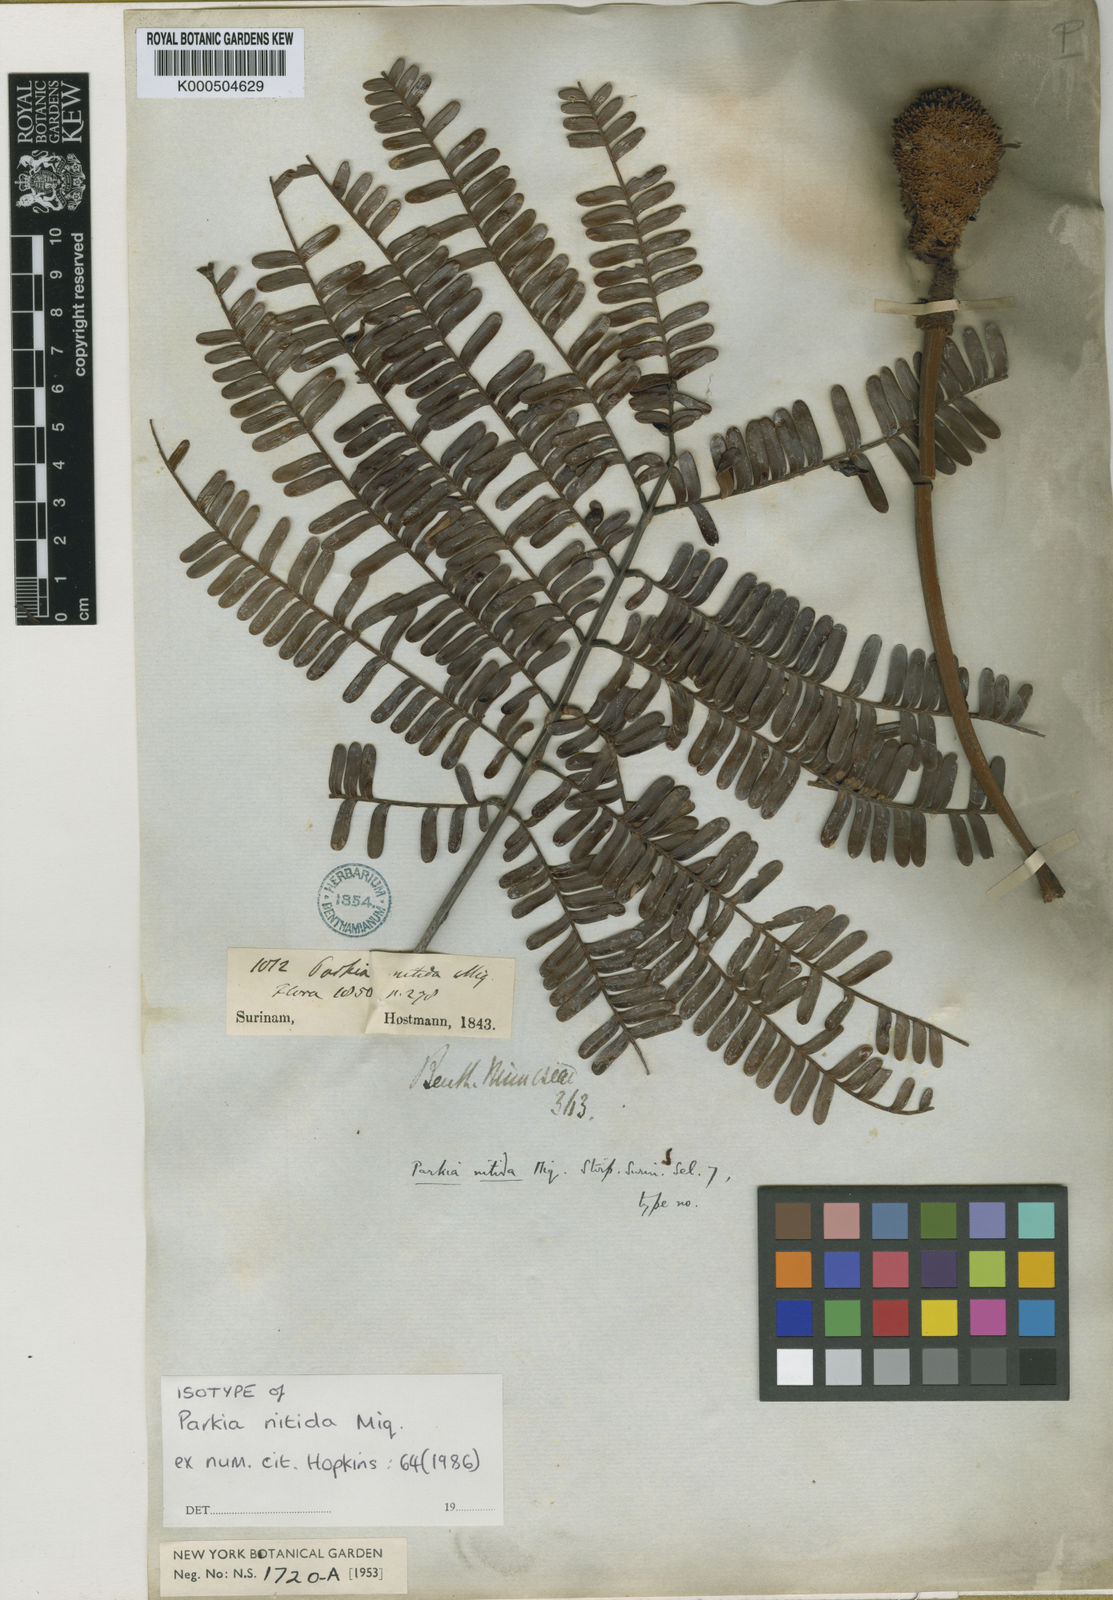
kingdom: Plantae
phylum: Tracheophyta
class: Magnoliopsida
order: Fabales
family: Fabaceae
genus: Parkia
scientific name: Parkia nitida
